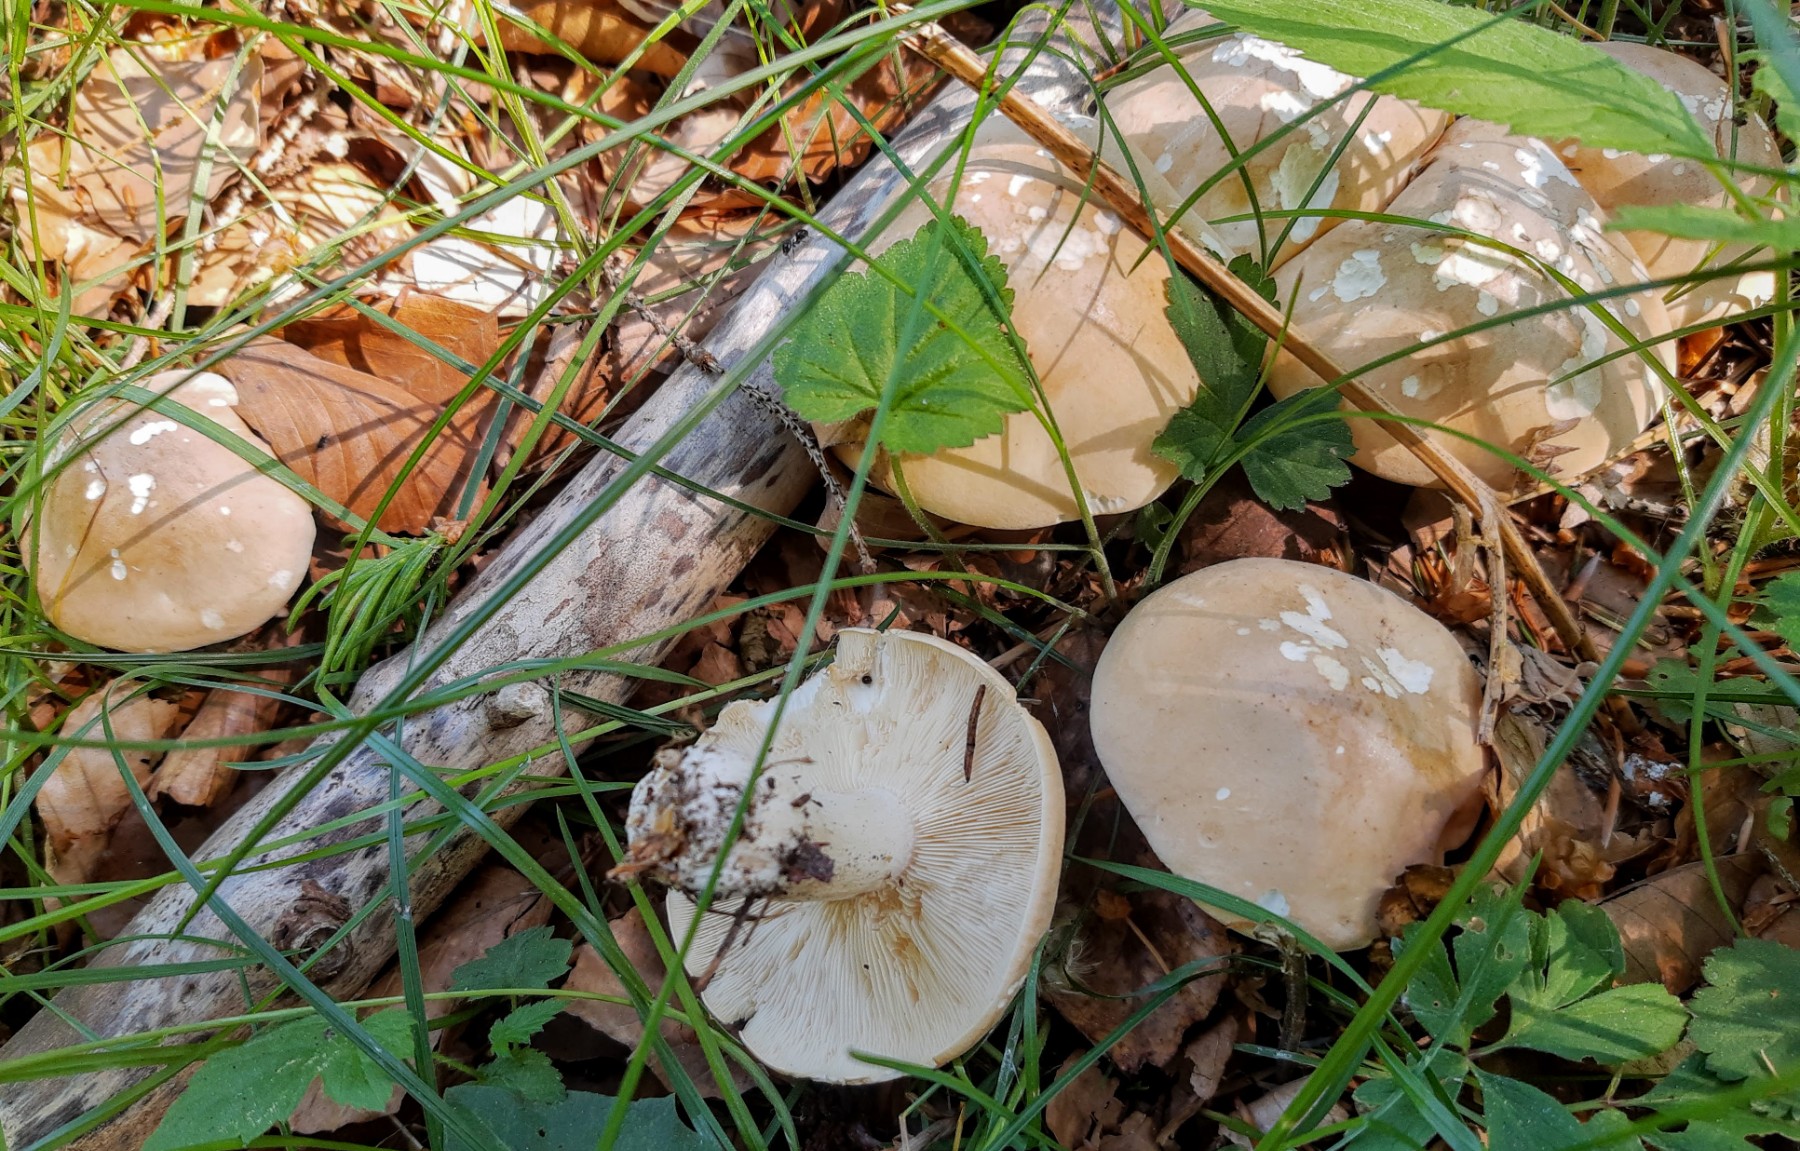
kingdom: Fungi
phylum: Basidiomycota
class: Agaricomycetes
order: Agaricales
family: Lyophyllaceae
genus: Calocybe
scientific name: Calocybe gambosa
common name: vårmusseron
